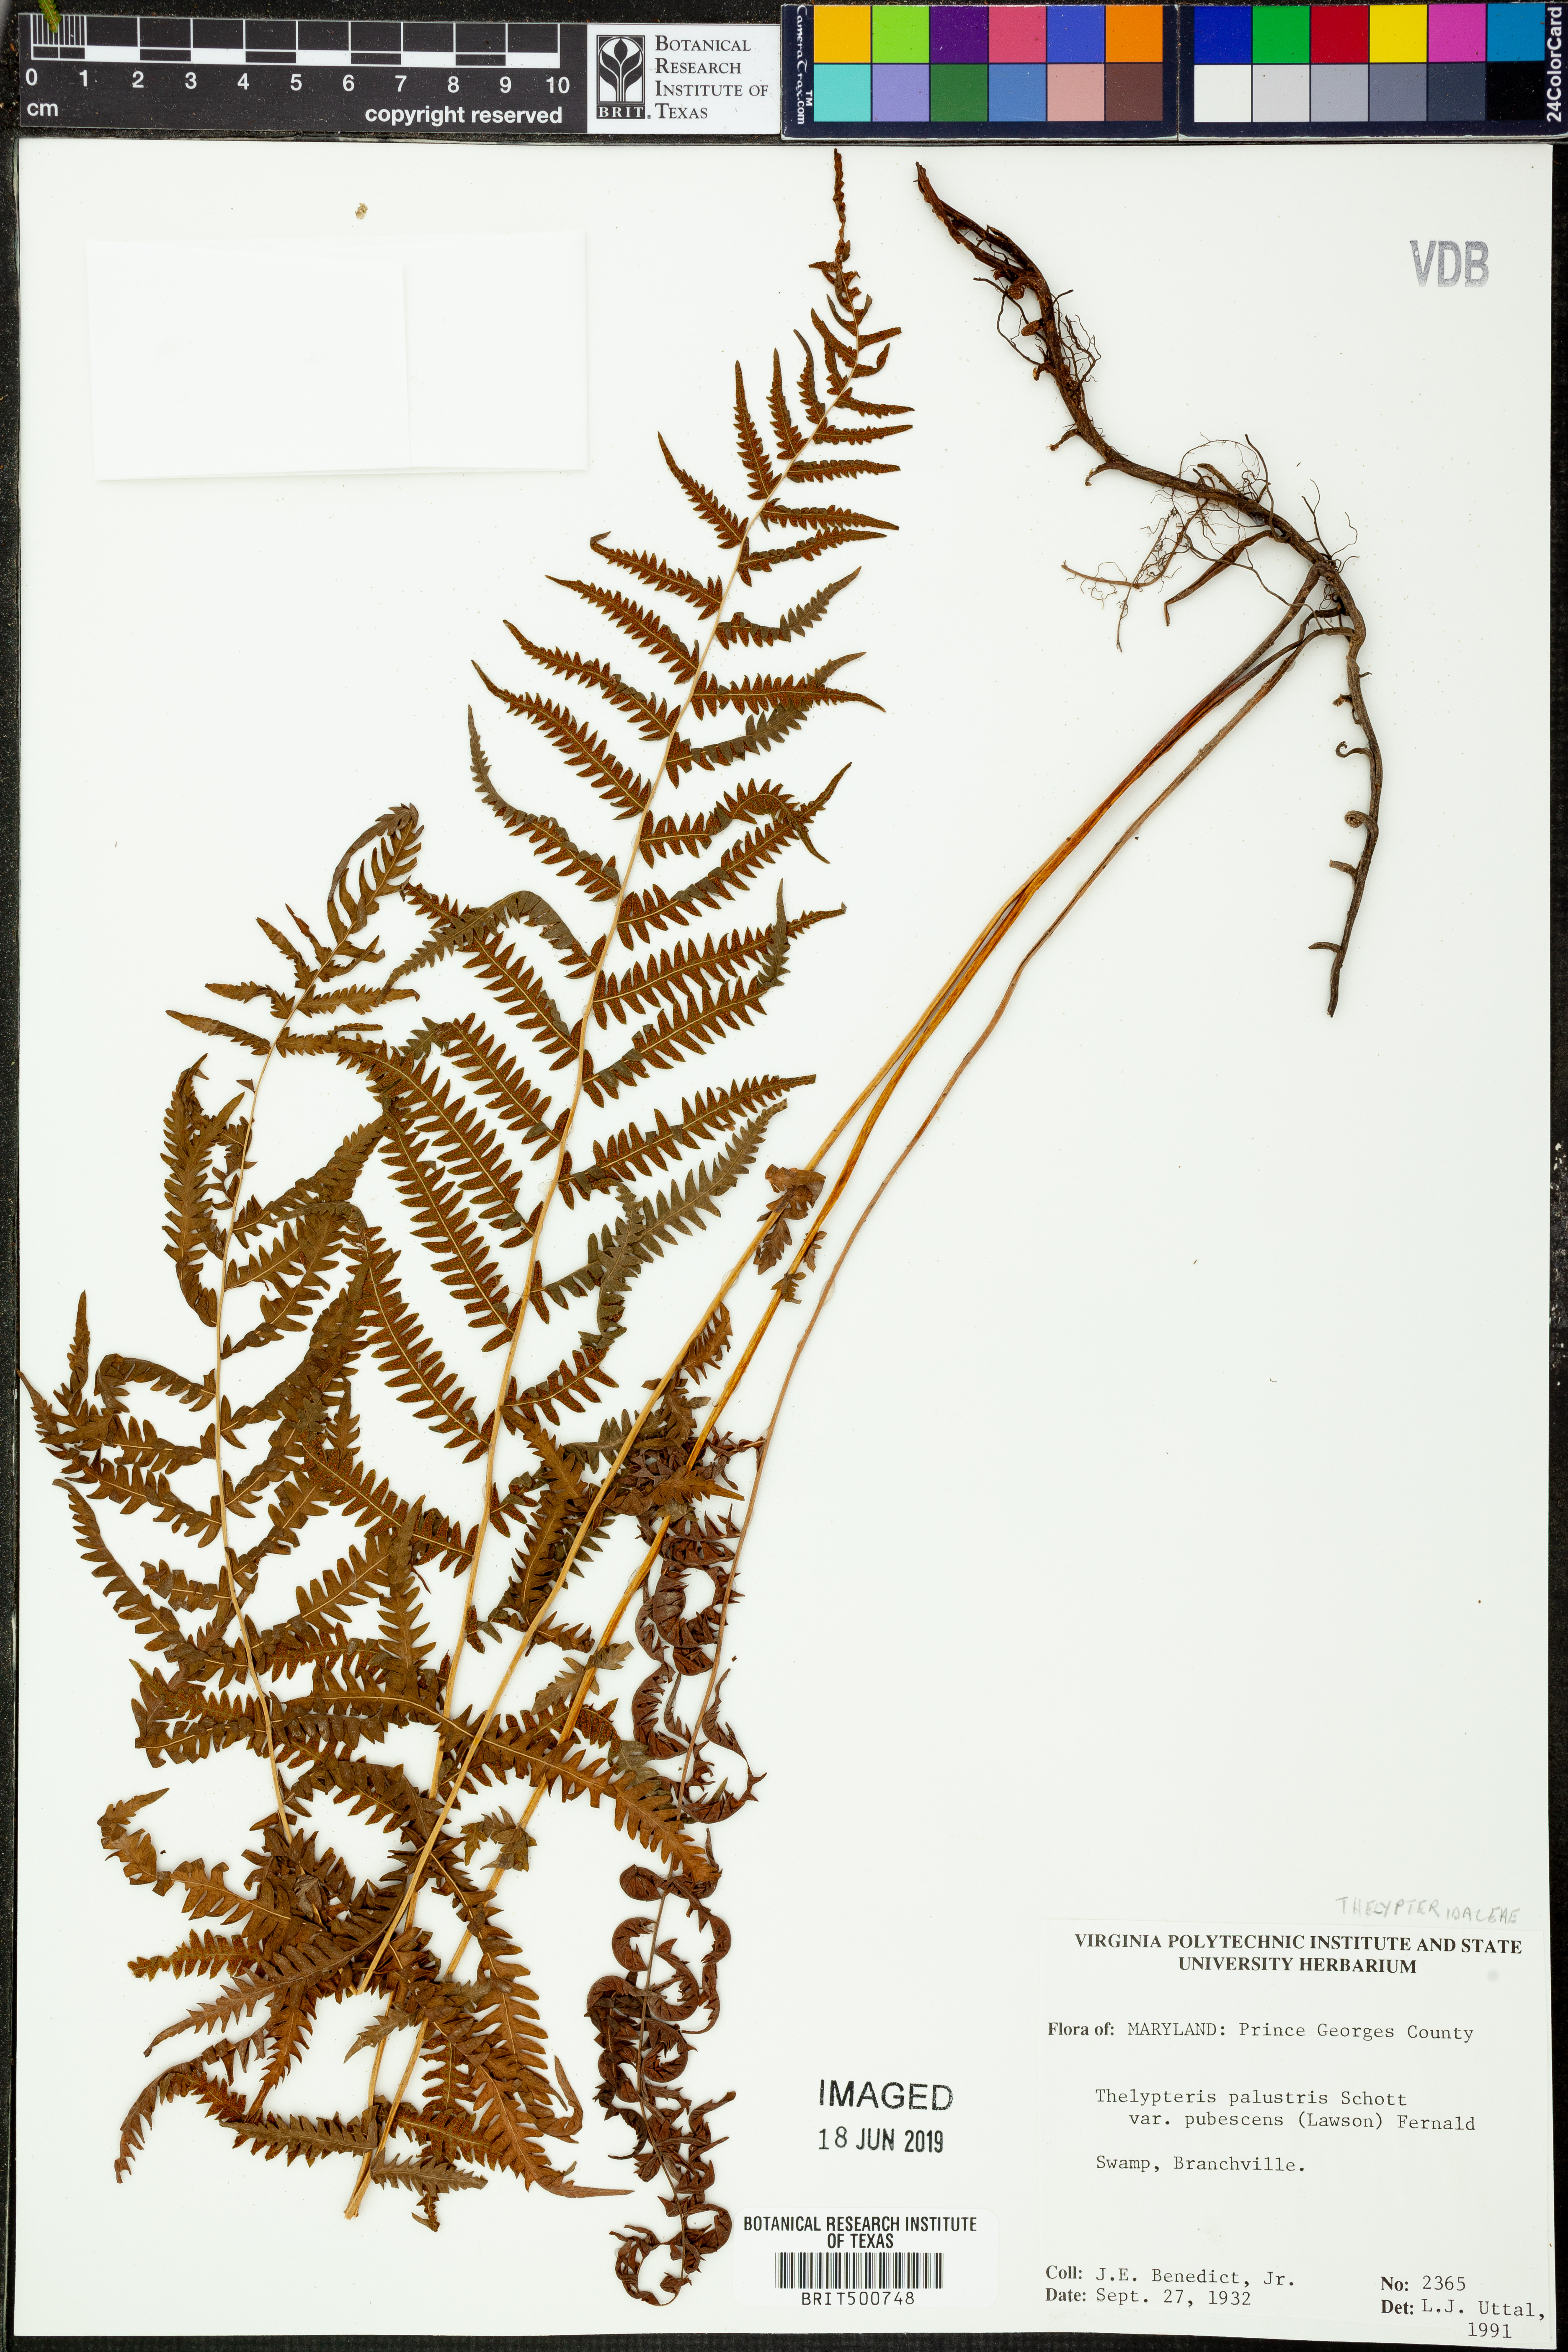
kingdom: Plantae
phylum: Tracheophyta
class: Polypodiopsida
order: Polypodiales
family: Thelypteridaceae
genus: Thelypteris
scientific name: Thelypteris palustris
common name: Marsh fern
